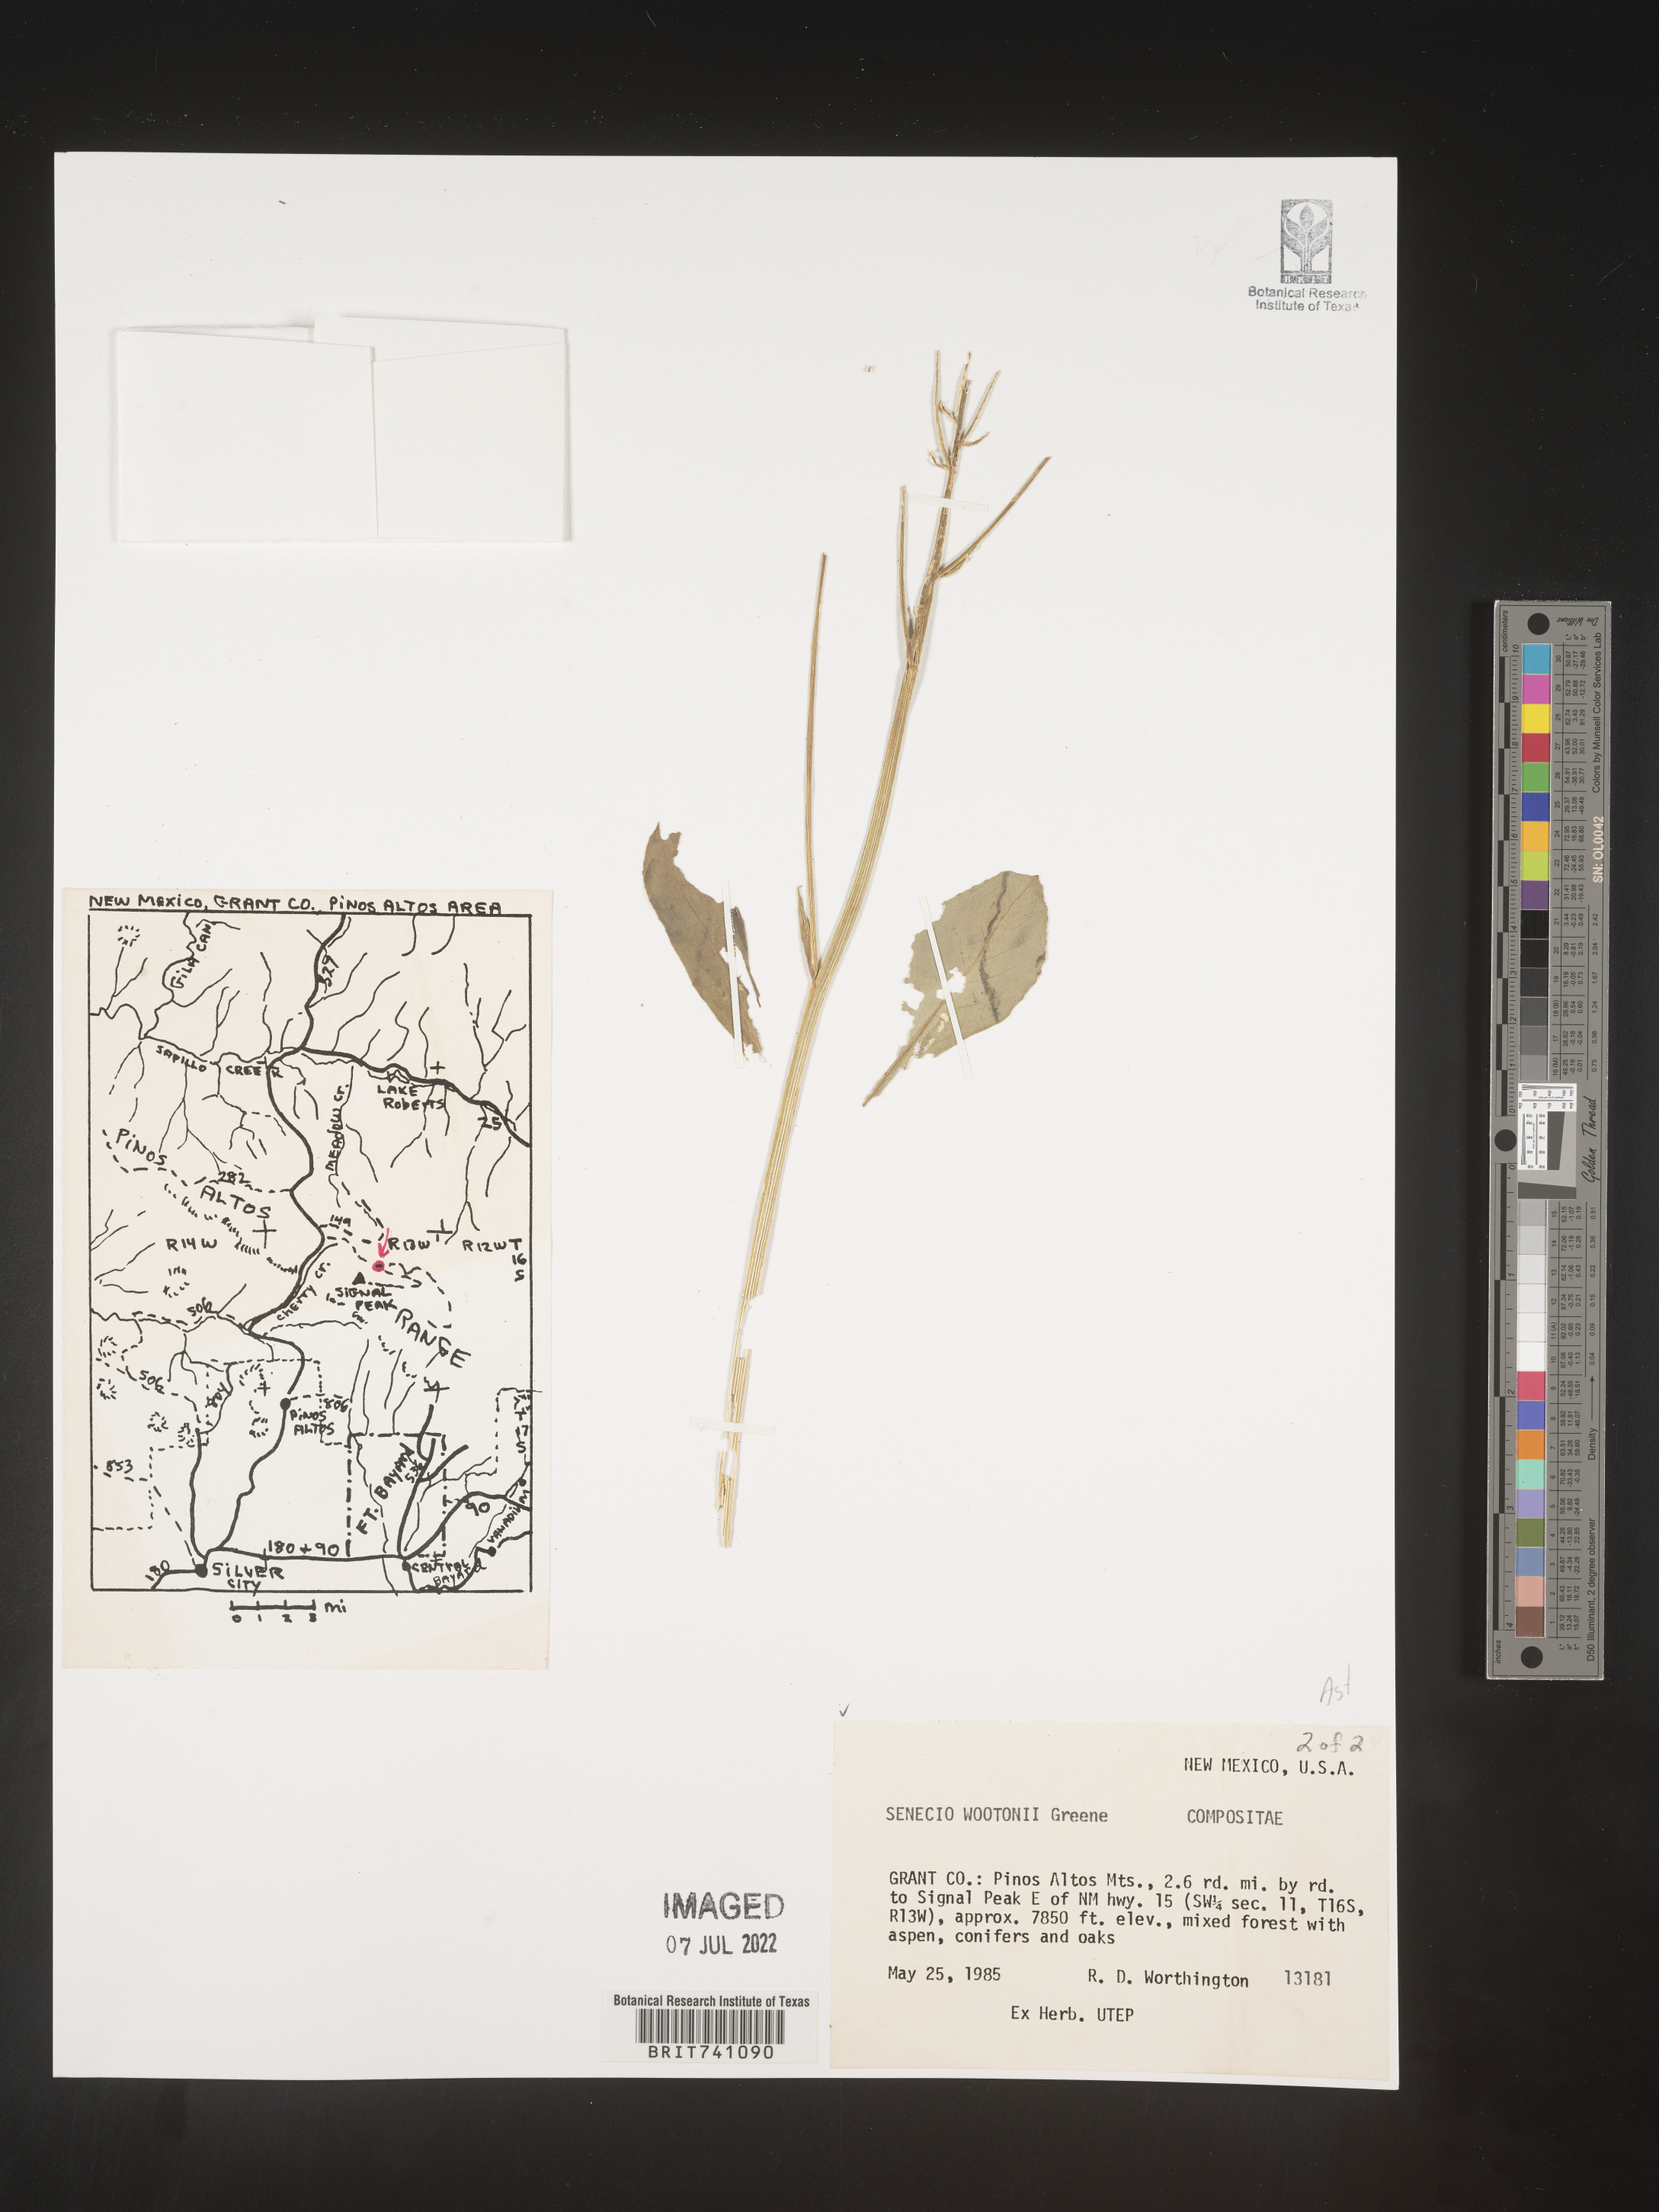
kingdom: Plantae
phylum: Tracheophyta
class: Magnoliopsida
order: Asterales
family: Asteraceae
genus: Senecio
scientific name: Senecio wootonii
